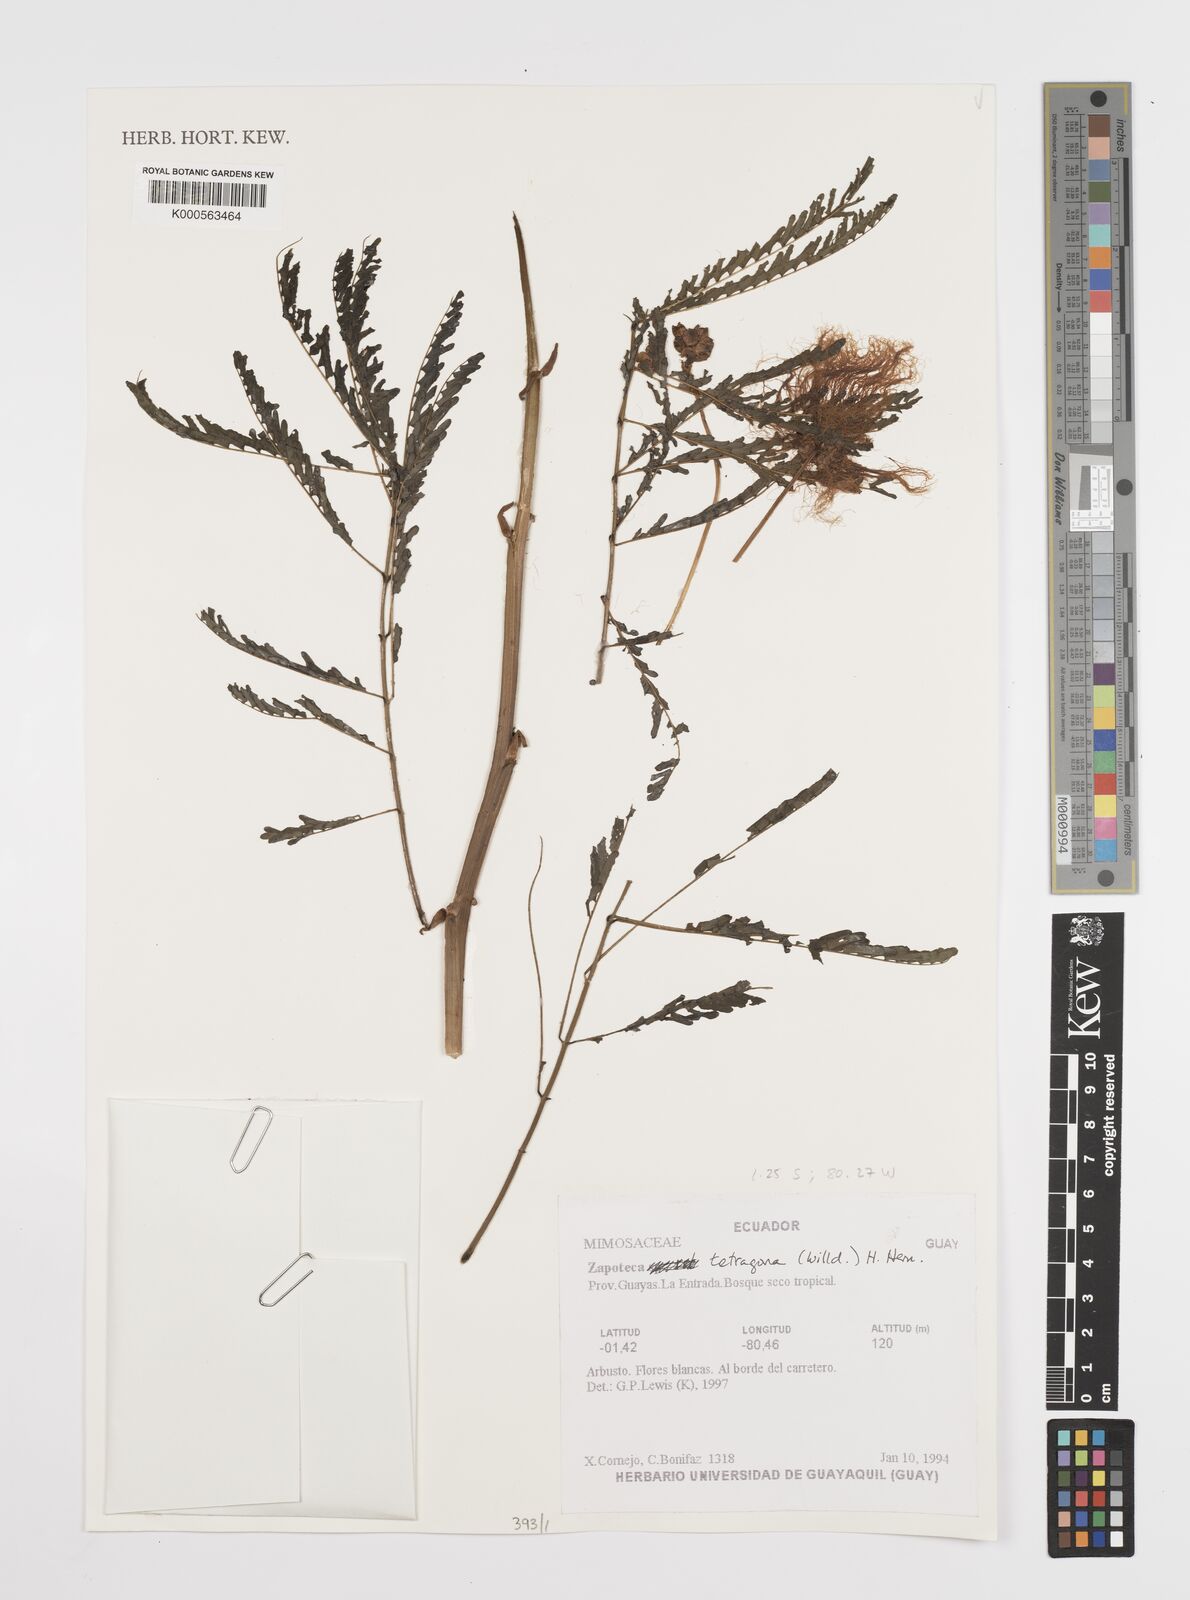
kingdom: Plantae
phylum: Tracheophyta
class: Magnoliopsida
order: Fabales
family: Fabaceae
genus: Zapoteca
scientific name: Zapoteca tetragona
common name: White calliandra
